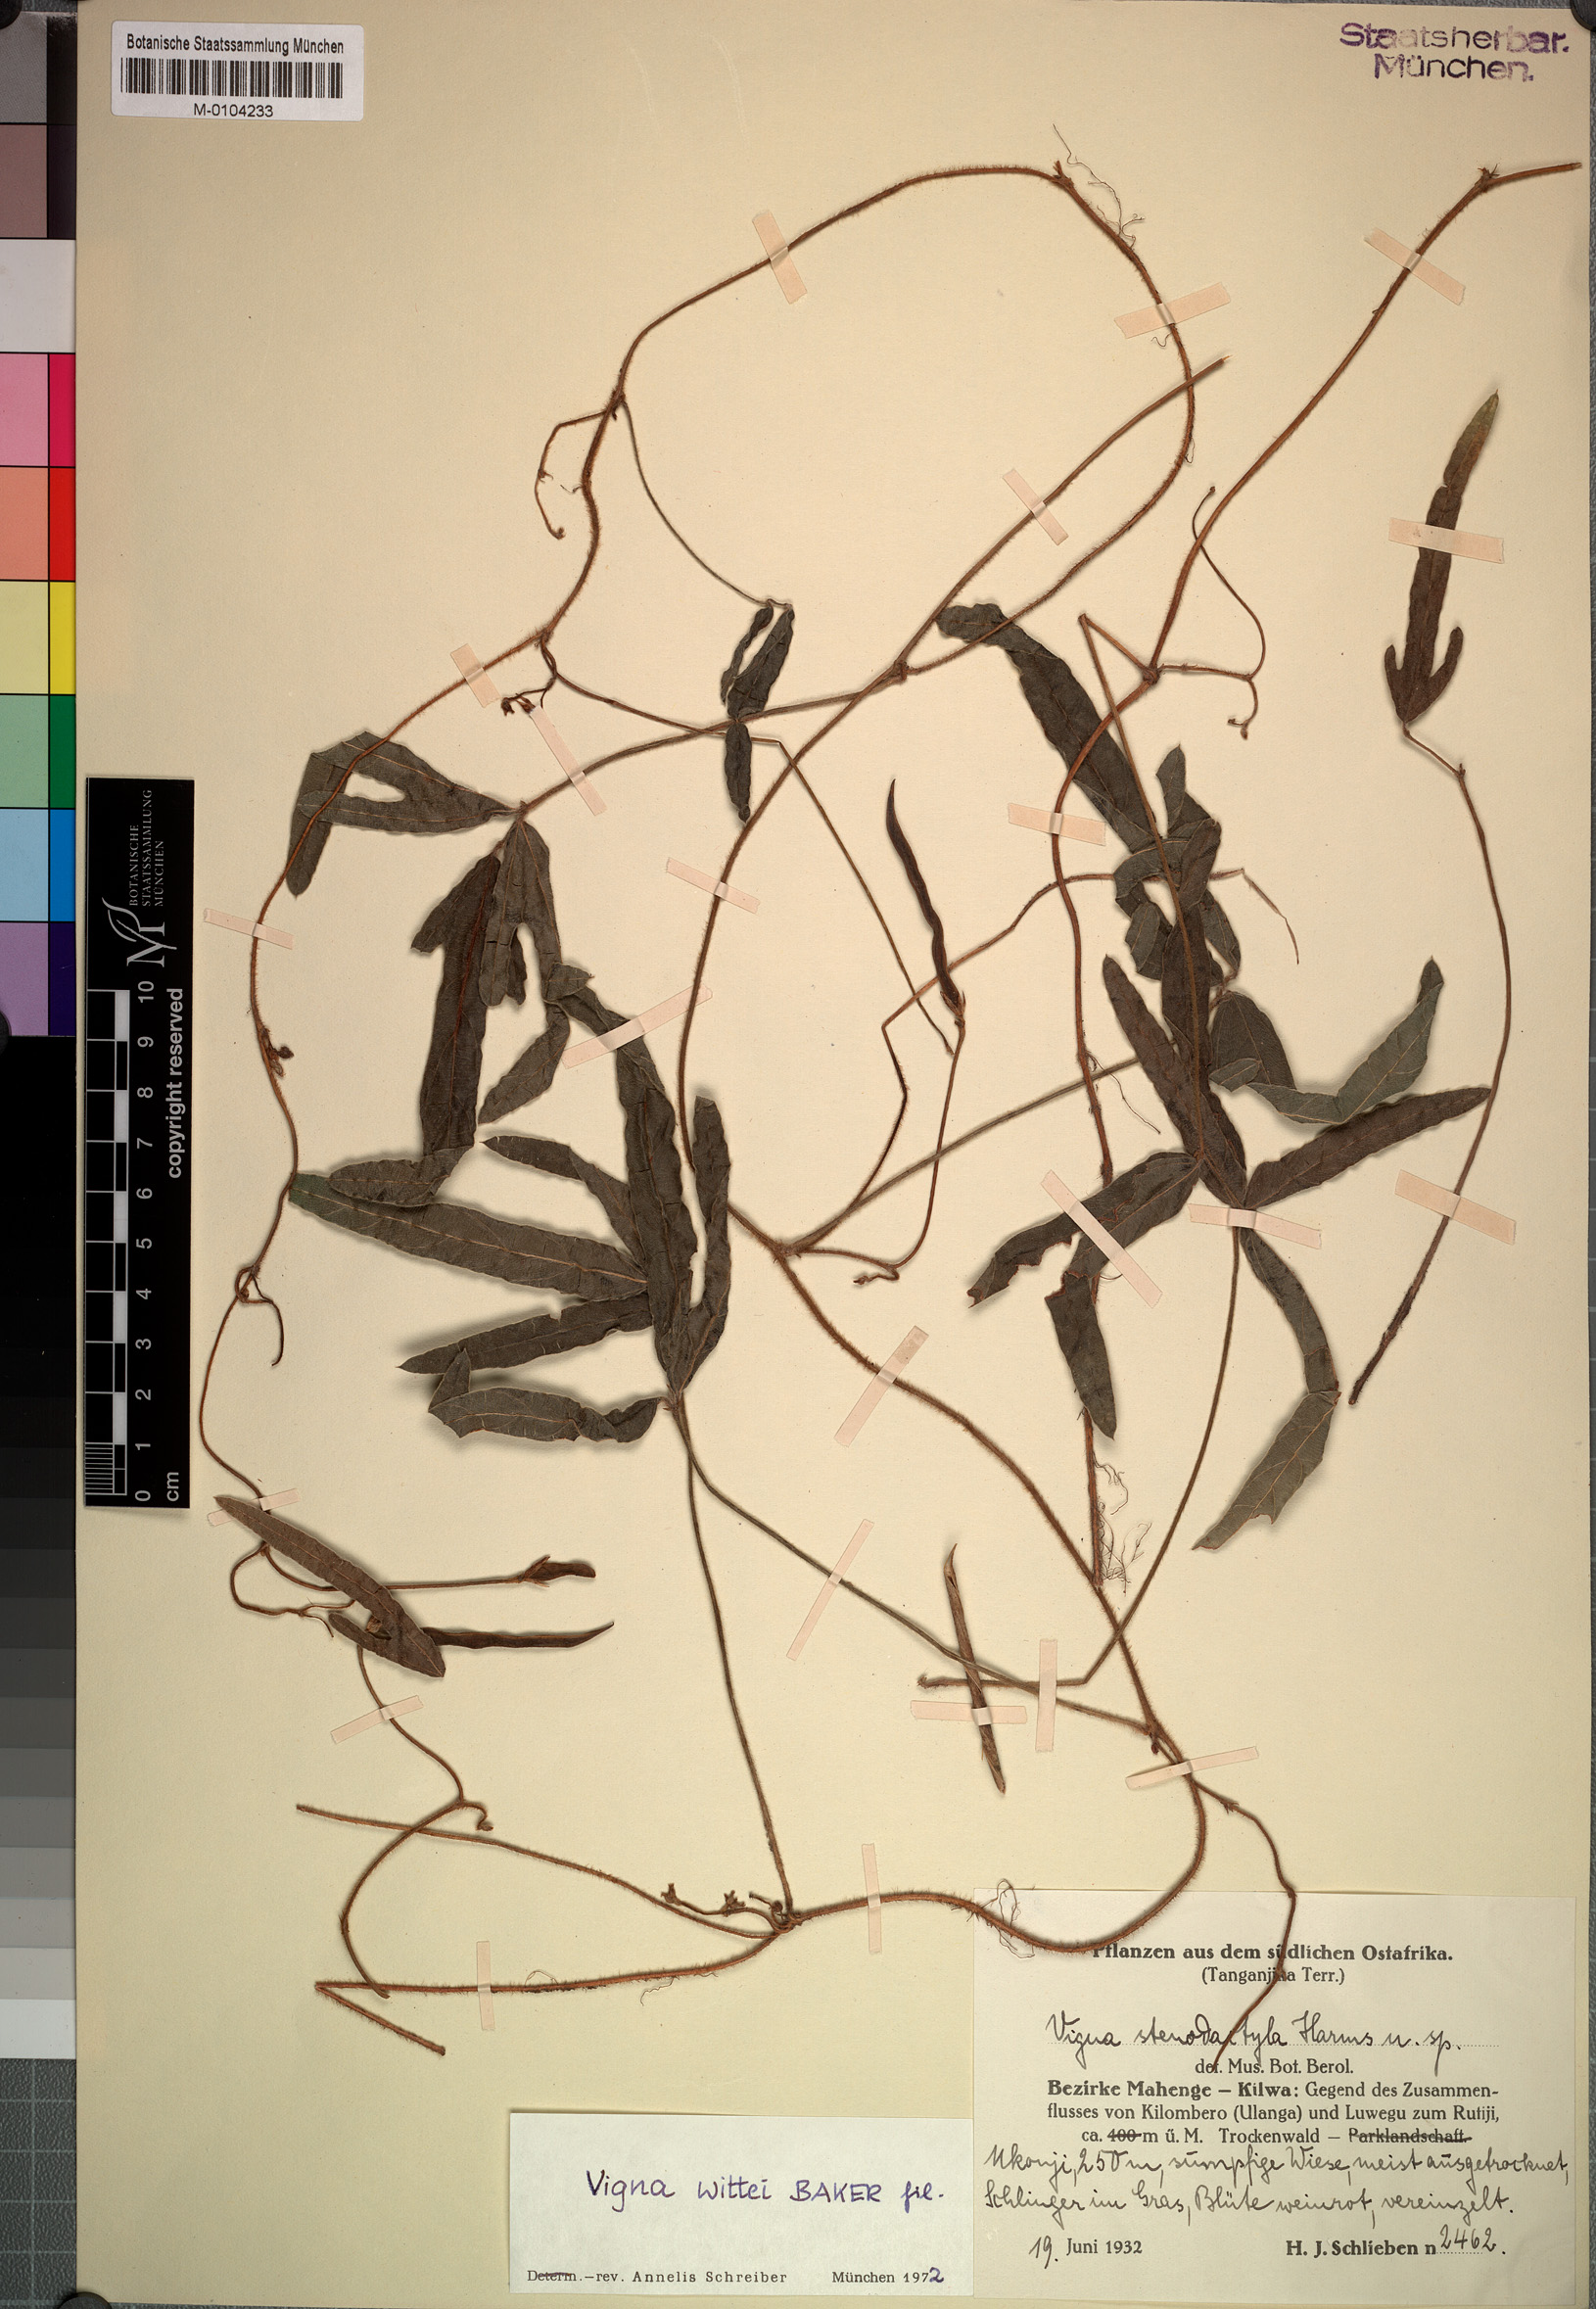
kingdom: Plantae
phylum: Tracheophyta
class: Magnoliopsida
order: Fabales
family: Fabaceae
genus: Vigna
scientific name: Vigna wittei
